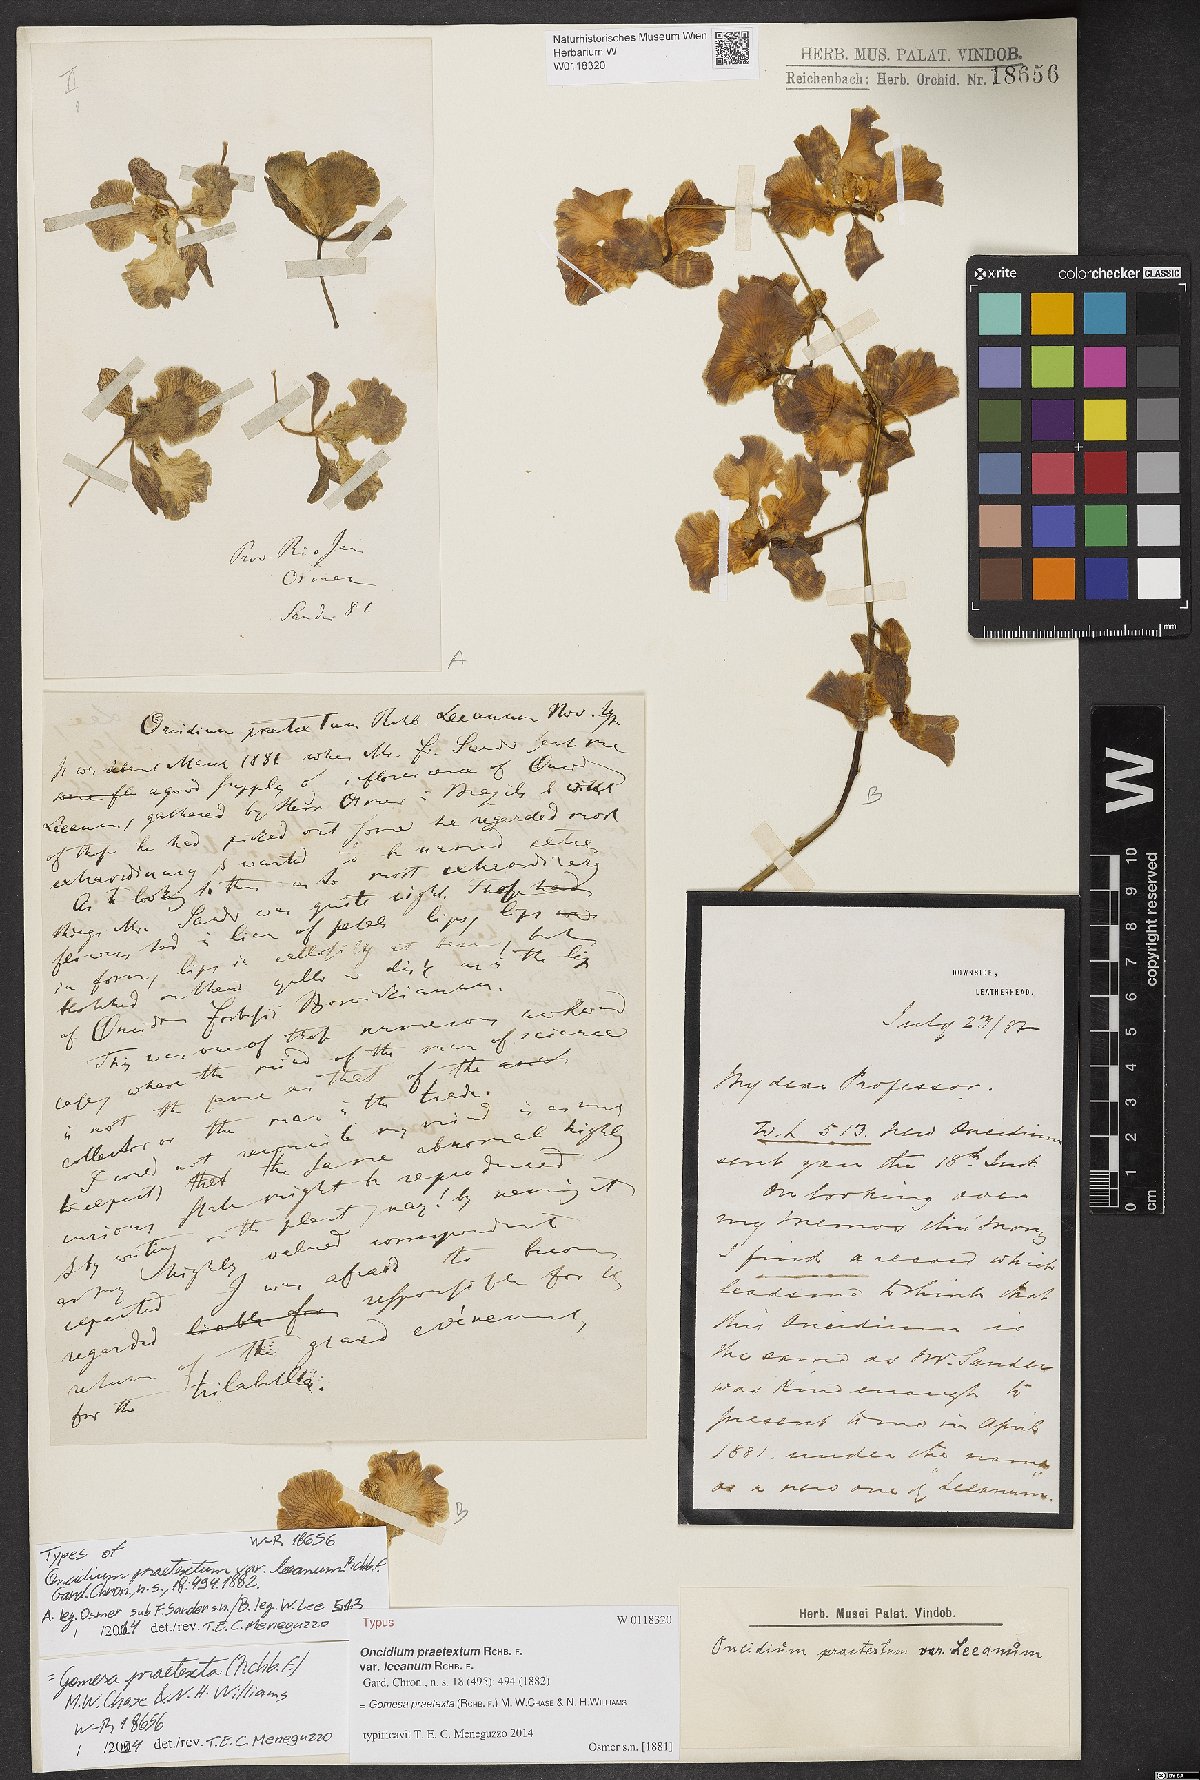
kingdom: Plantae
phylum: Tracheophyta
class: Liliopsida
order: Asparagales
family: Orchidaceae
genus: Gomesa
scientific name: Gomesa praetexta
